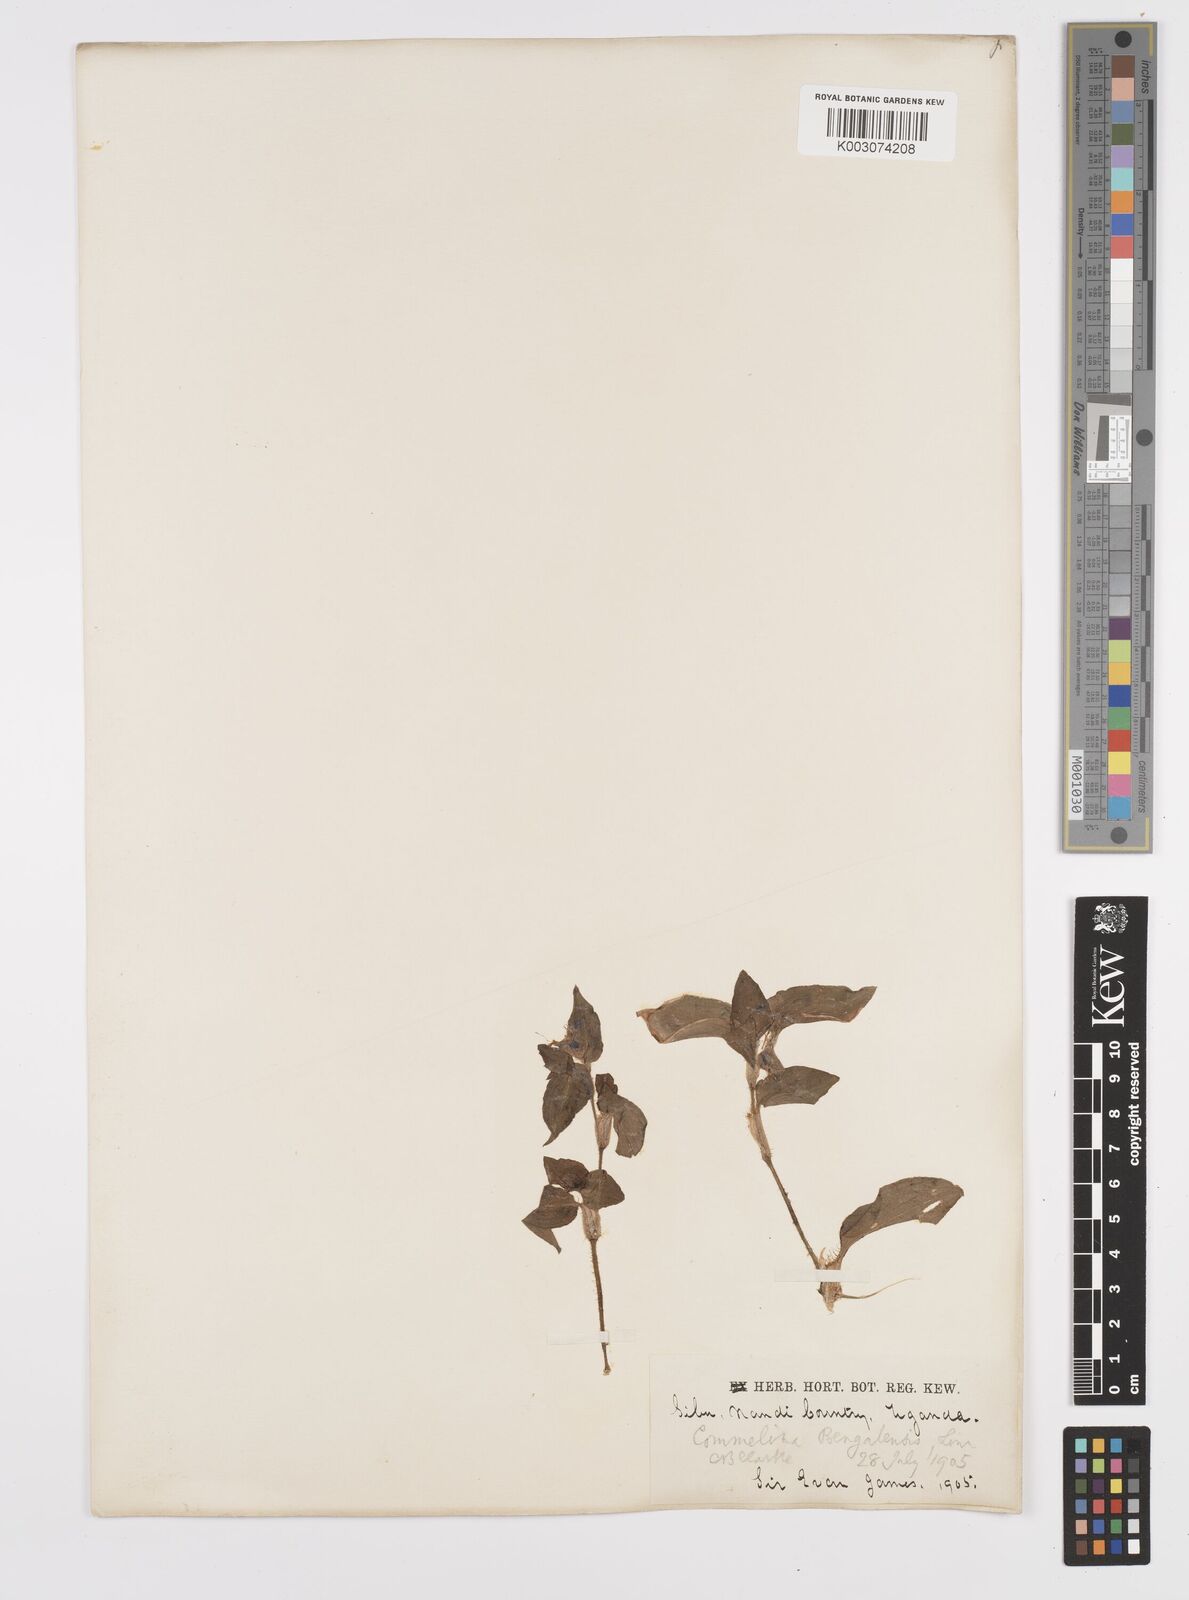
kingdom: Plantae
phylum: Tracheophyta
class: Liliopsida
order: Commelinales
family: Commelinaceae
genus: Commelina
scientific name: Commelina benghalensis
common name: Jio
